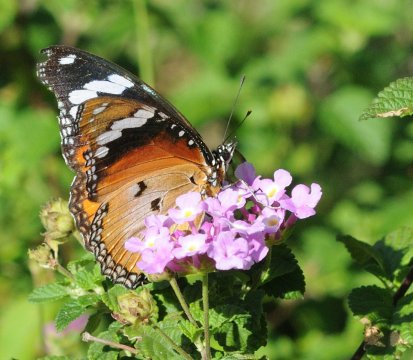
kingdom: Animalia
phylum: Arthropoda
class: Insecta
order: Lepidoptera
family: Nymphalidae
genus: Hypolimnas
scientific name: Hypolimnas misippus
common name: Mimic
